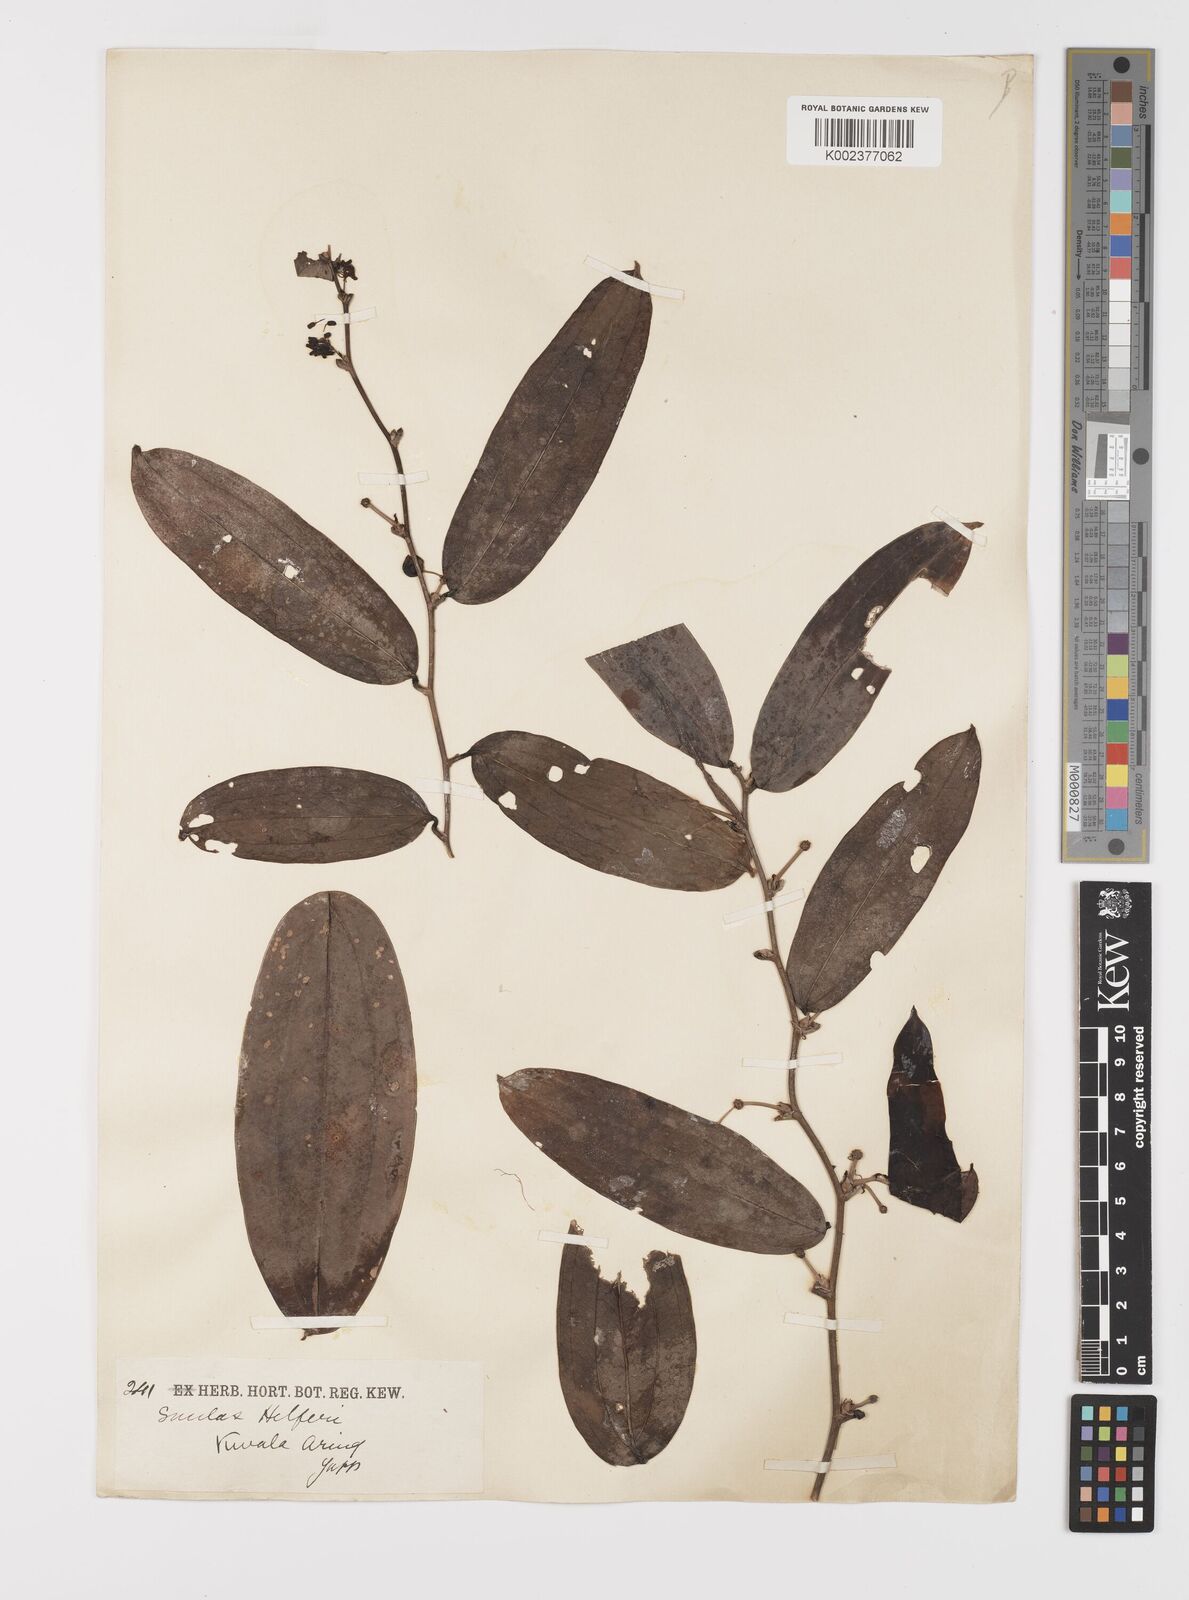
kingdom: Plantae
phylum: Tracheophyta
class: Liliopsida
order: Liliales
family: Smilacaceae
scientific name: Smilacaceae
